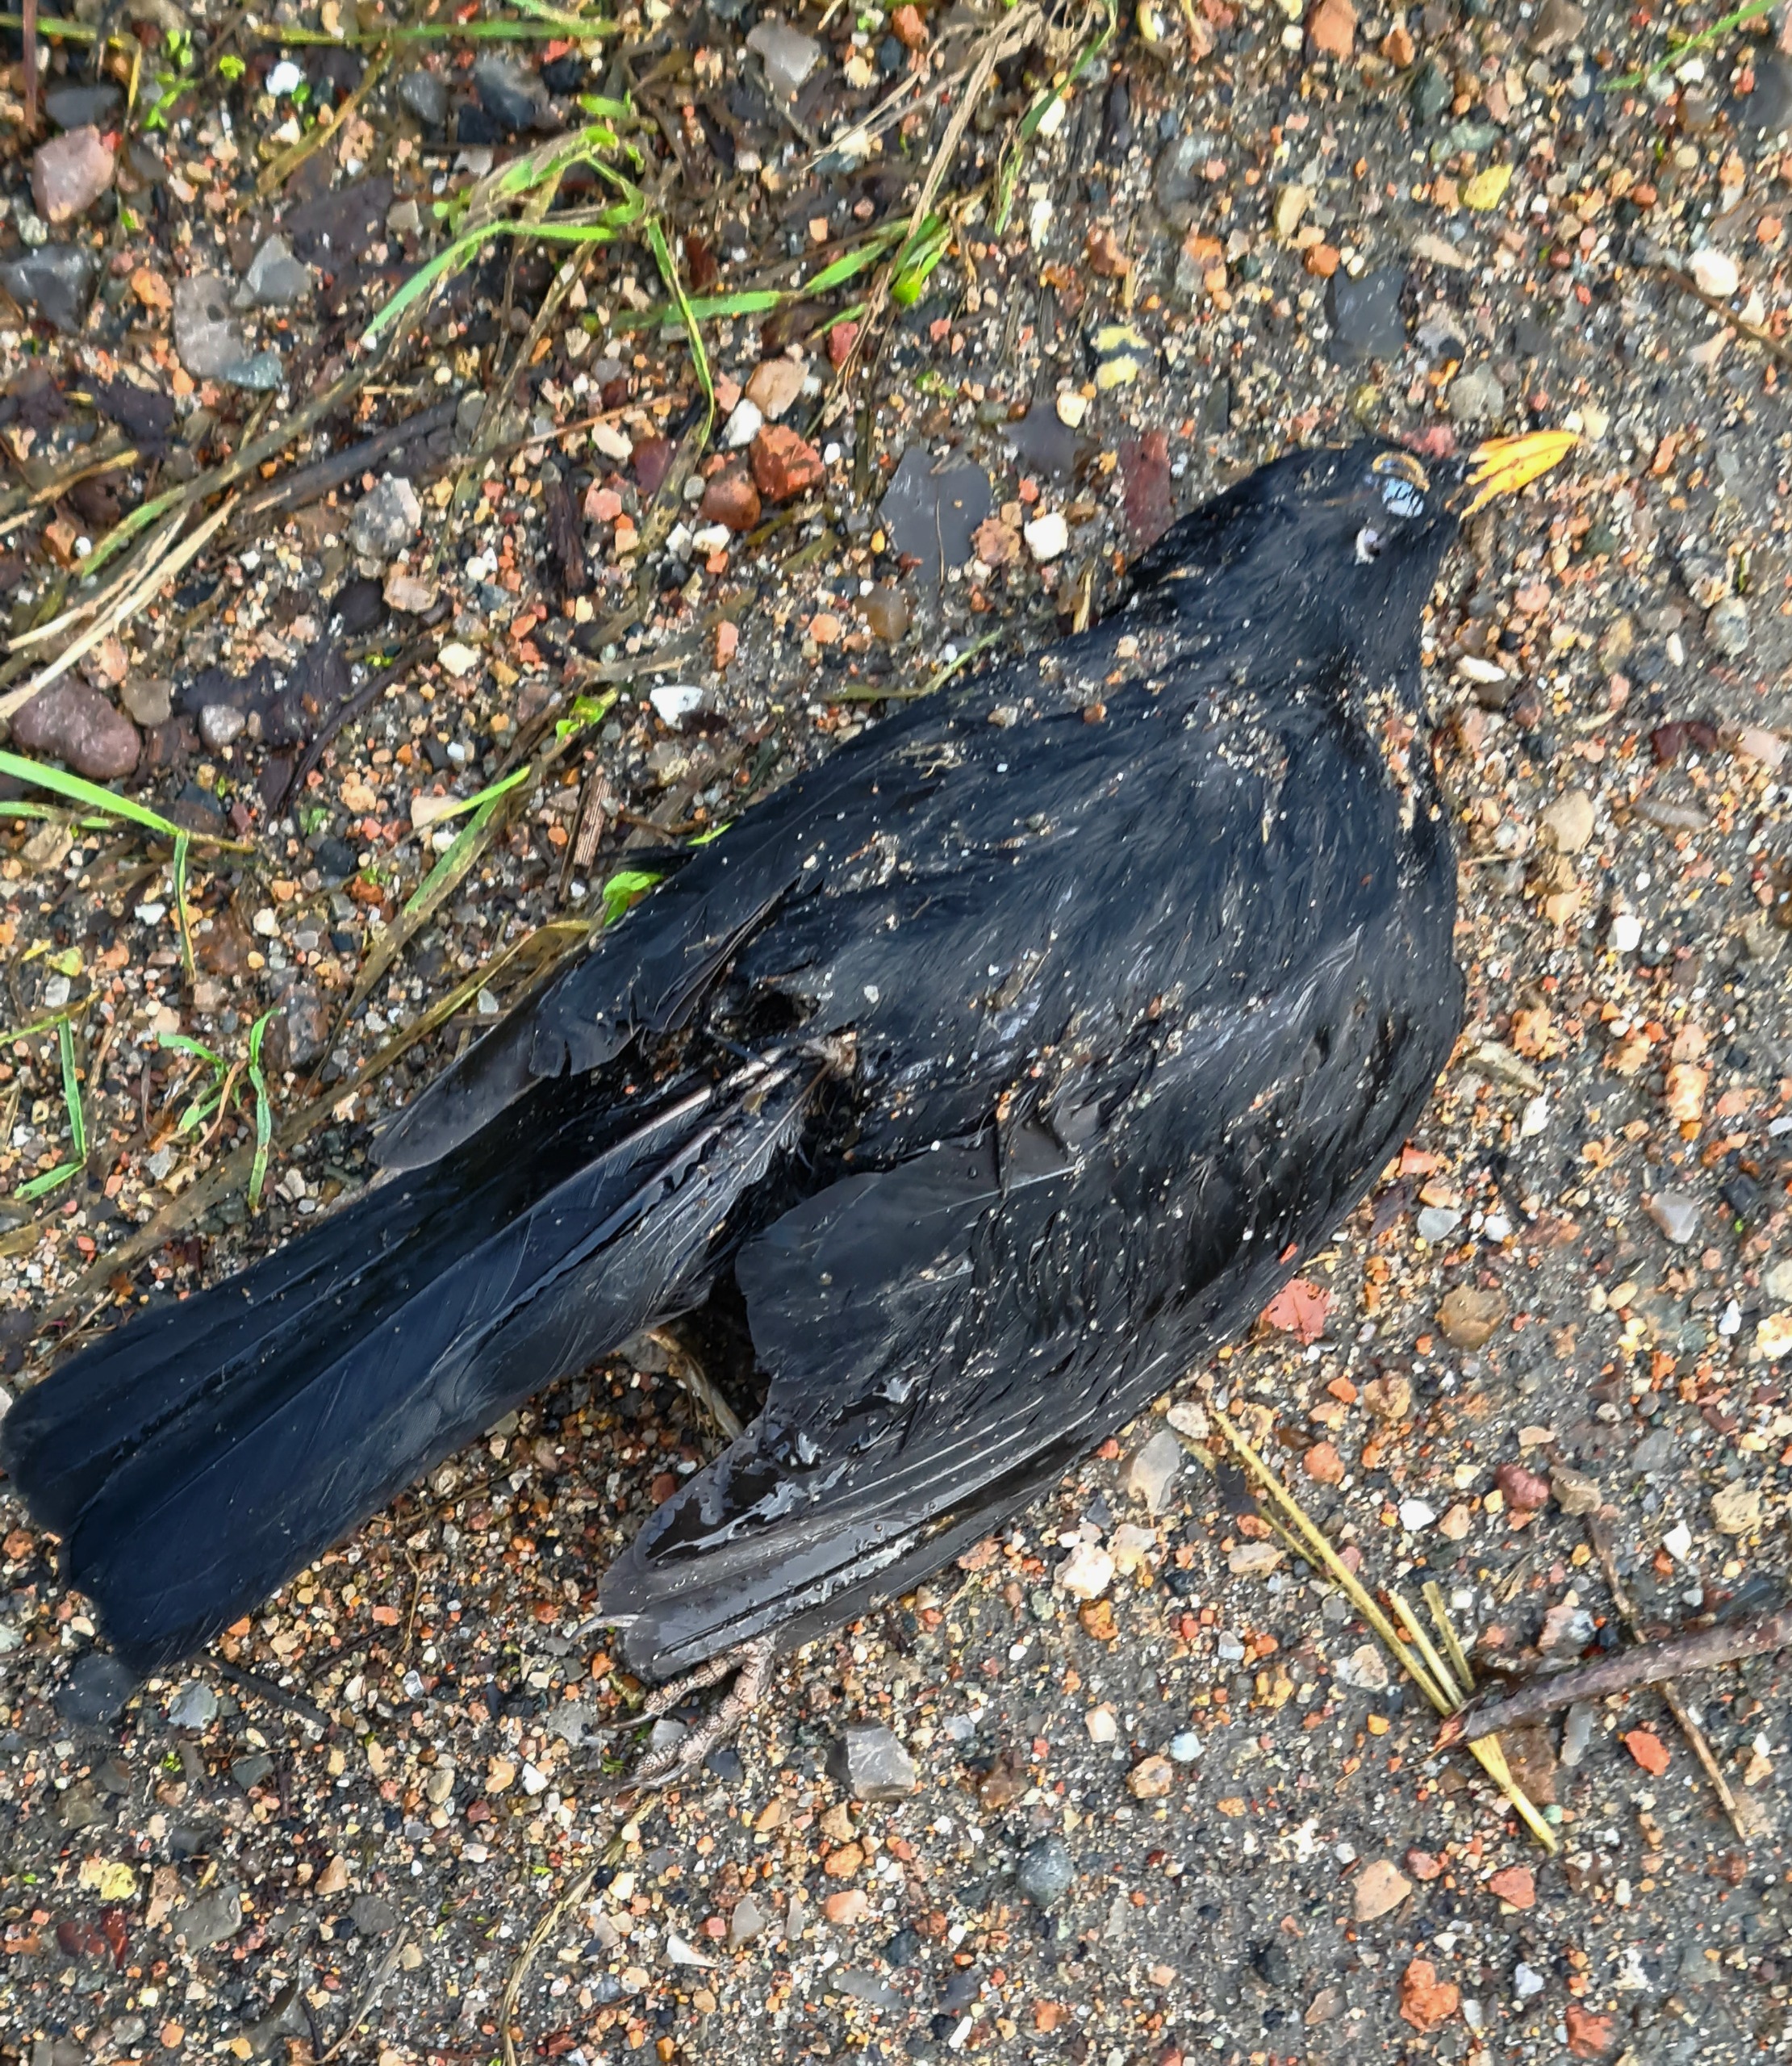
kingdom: Animalia
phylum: Chordata
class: Aves
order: Passeriformes
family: Turdidae
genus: Turdus
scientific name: Turdus merula
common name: Solsort
